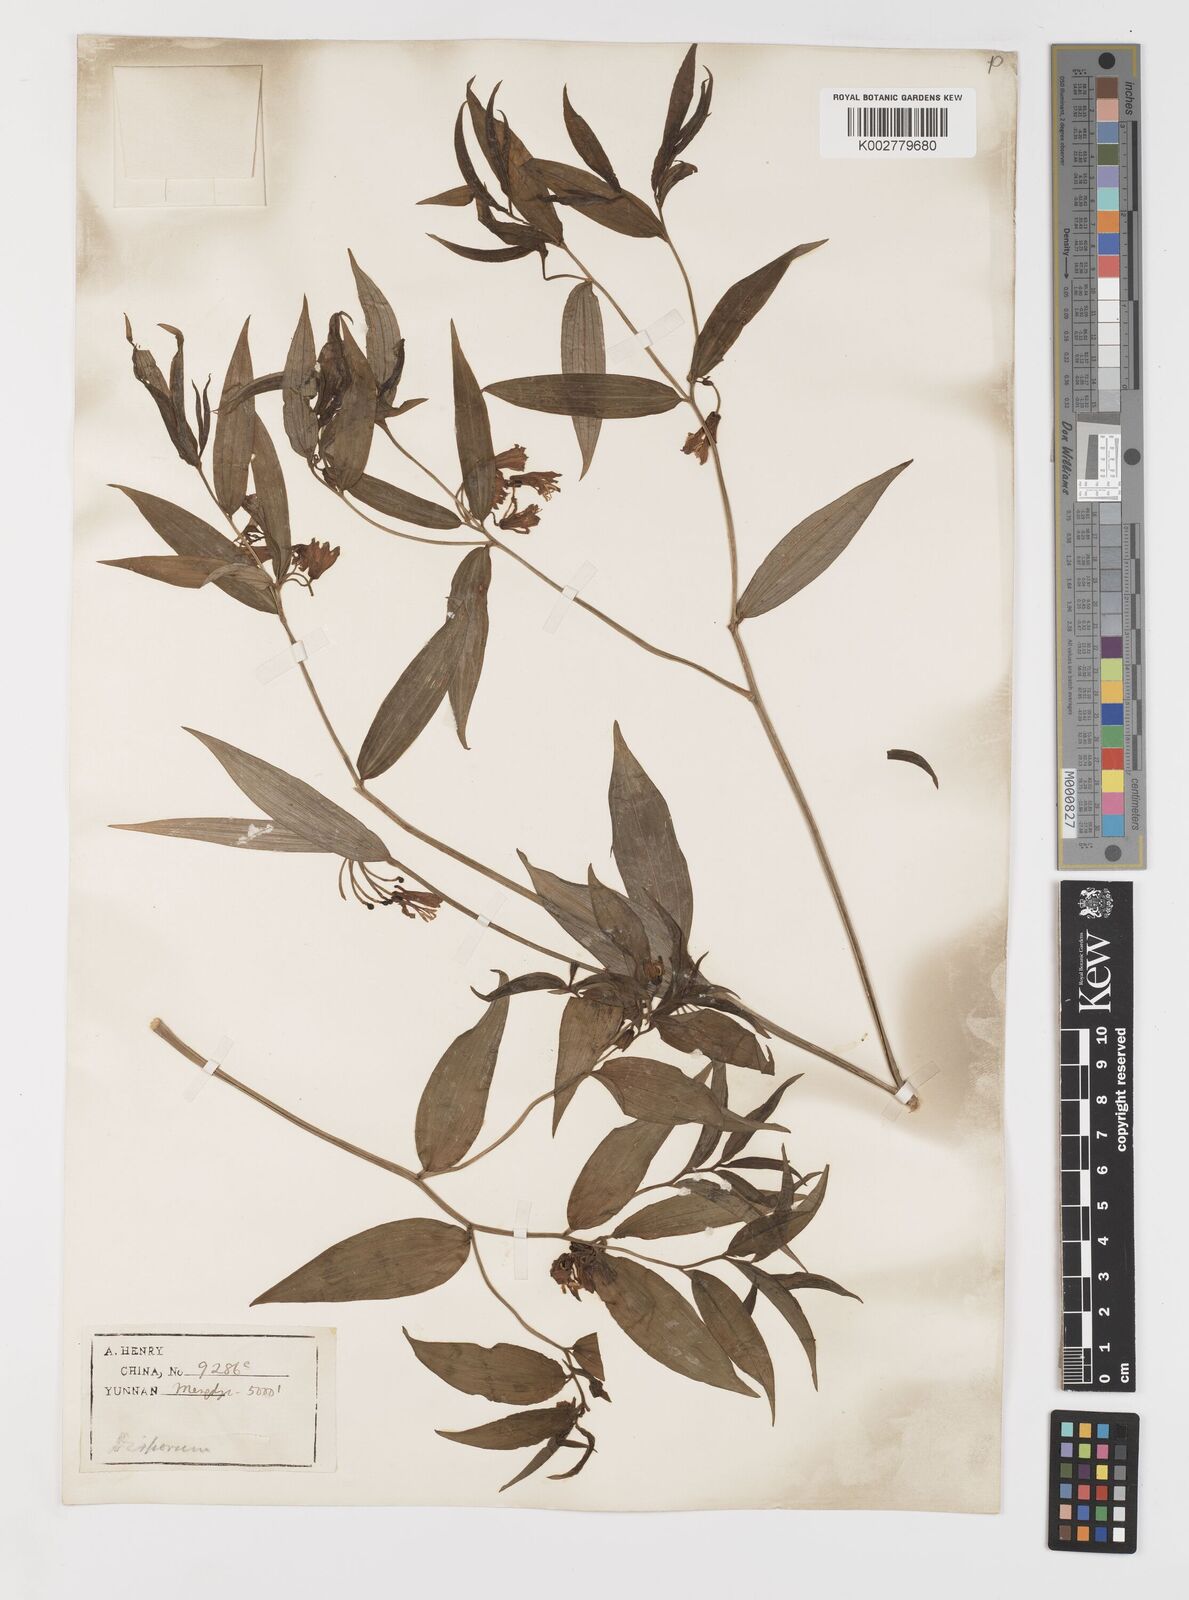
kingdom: Plantae
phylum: Tracheophyta
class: Liliopsida
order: Liliales
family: Colchicaceae
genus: Disporum
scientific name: Disporum cantoniense
